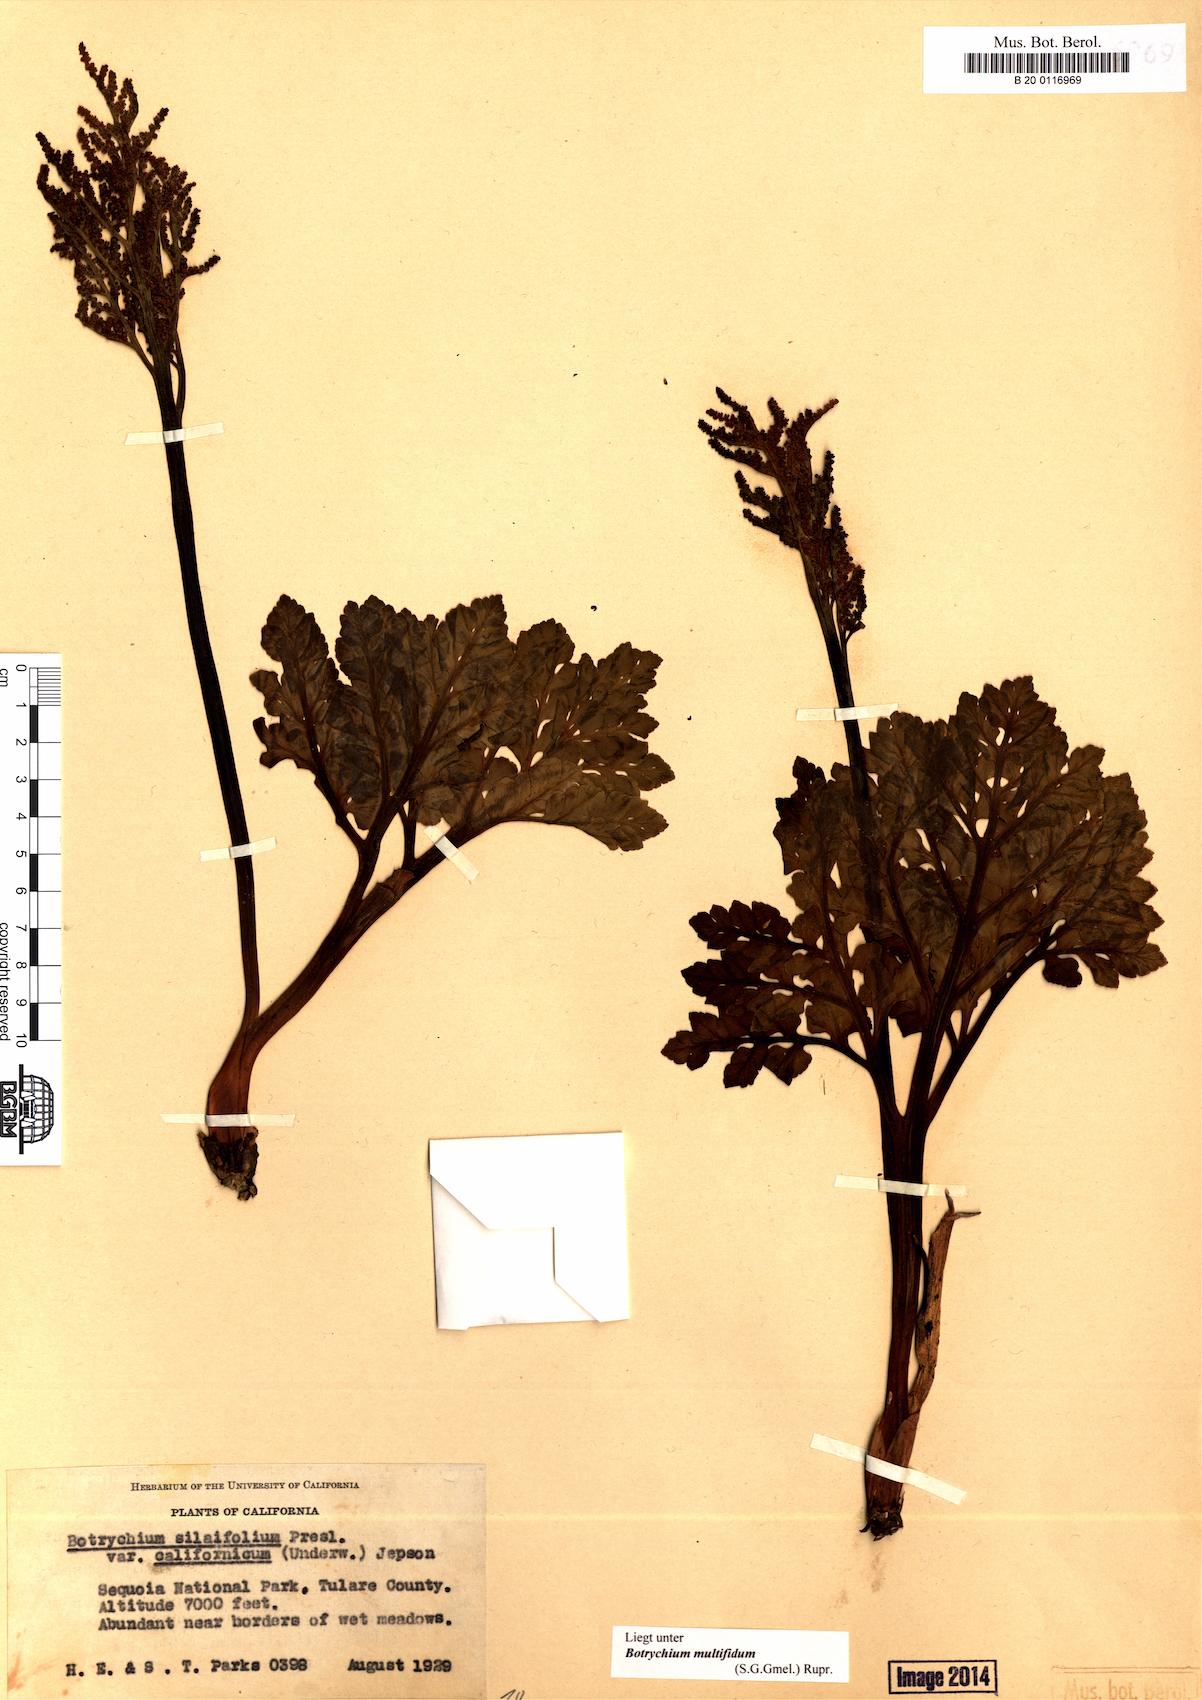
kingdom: Plantae
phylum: Tracheophyta
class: Polypodiopsida
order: Ophioglossales
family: Ophioglossaceae
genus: Sceptridium
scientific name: Sceptridium multifidum
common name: Leathery grape fern
